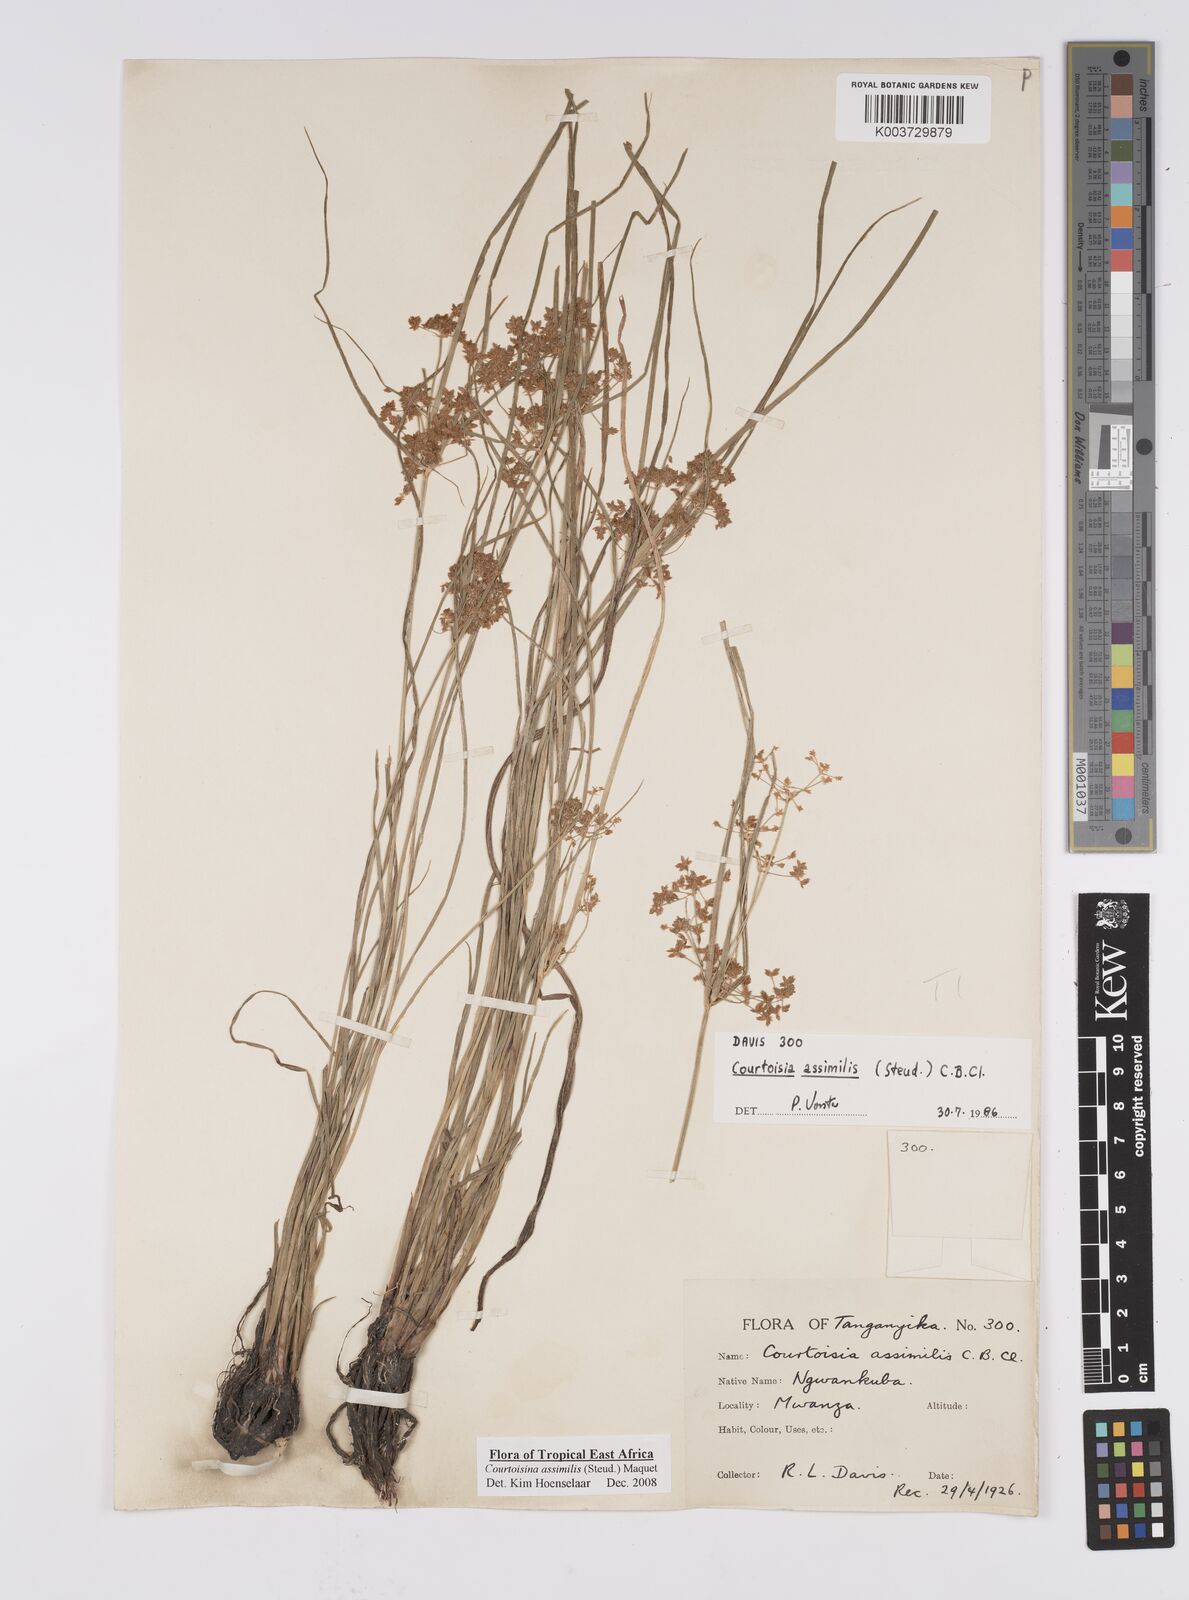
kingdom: Plantae
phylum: Tracheophyta
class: Liliopsida
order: Poales
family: Cyperaceae
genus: Cyperus
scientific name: Cyperus assimilis
